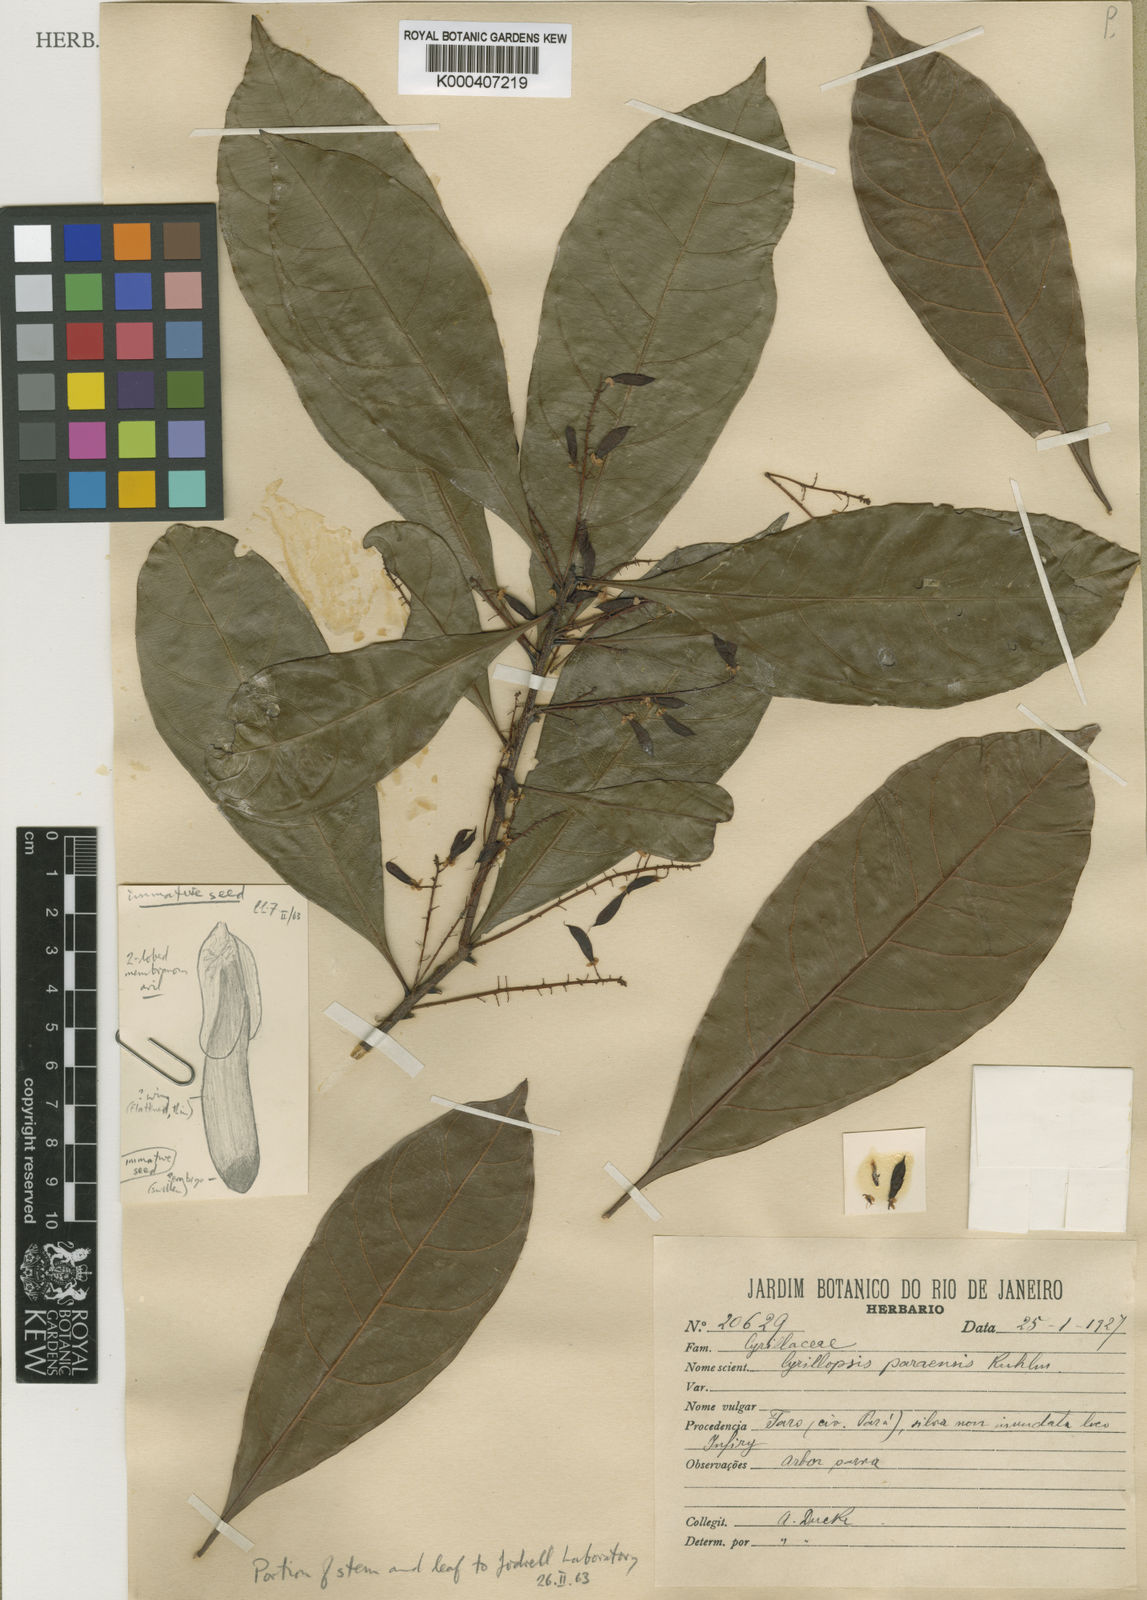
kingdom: Plantae
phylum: Tracheophyta
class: Magnoliopsida
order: Malpighiales
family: Ixonanthaceae
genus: Cyrillopsis
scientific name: Cyrillopsis paraensis
